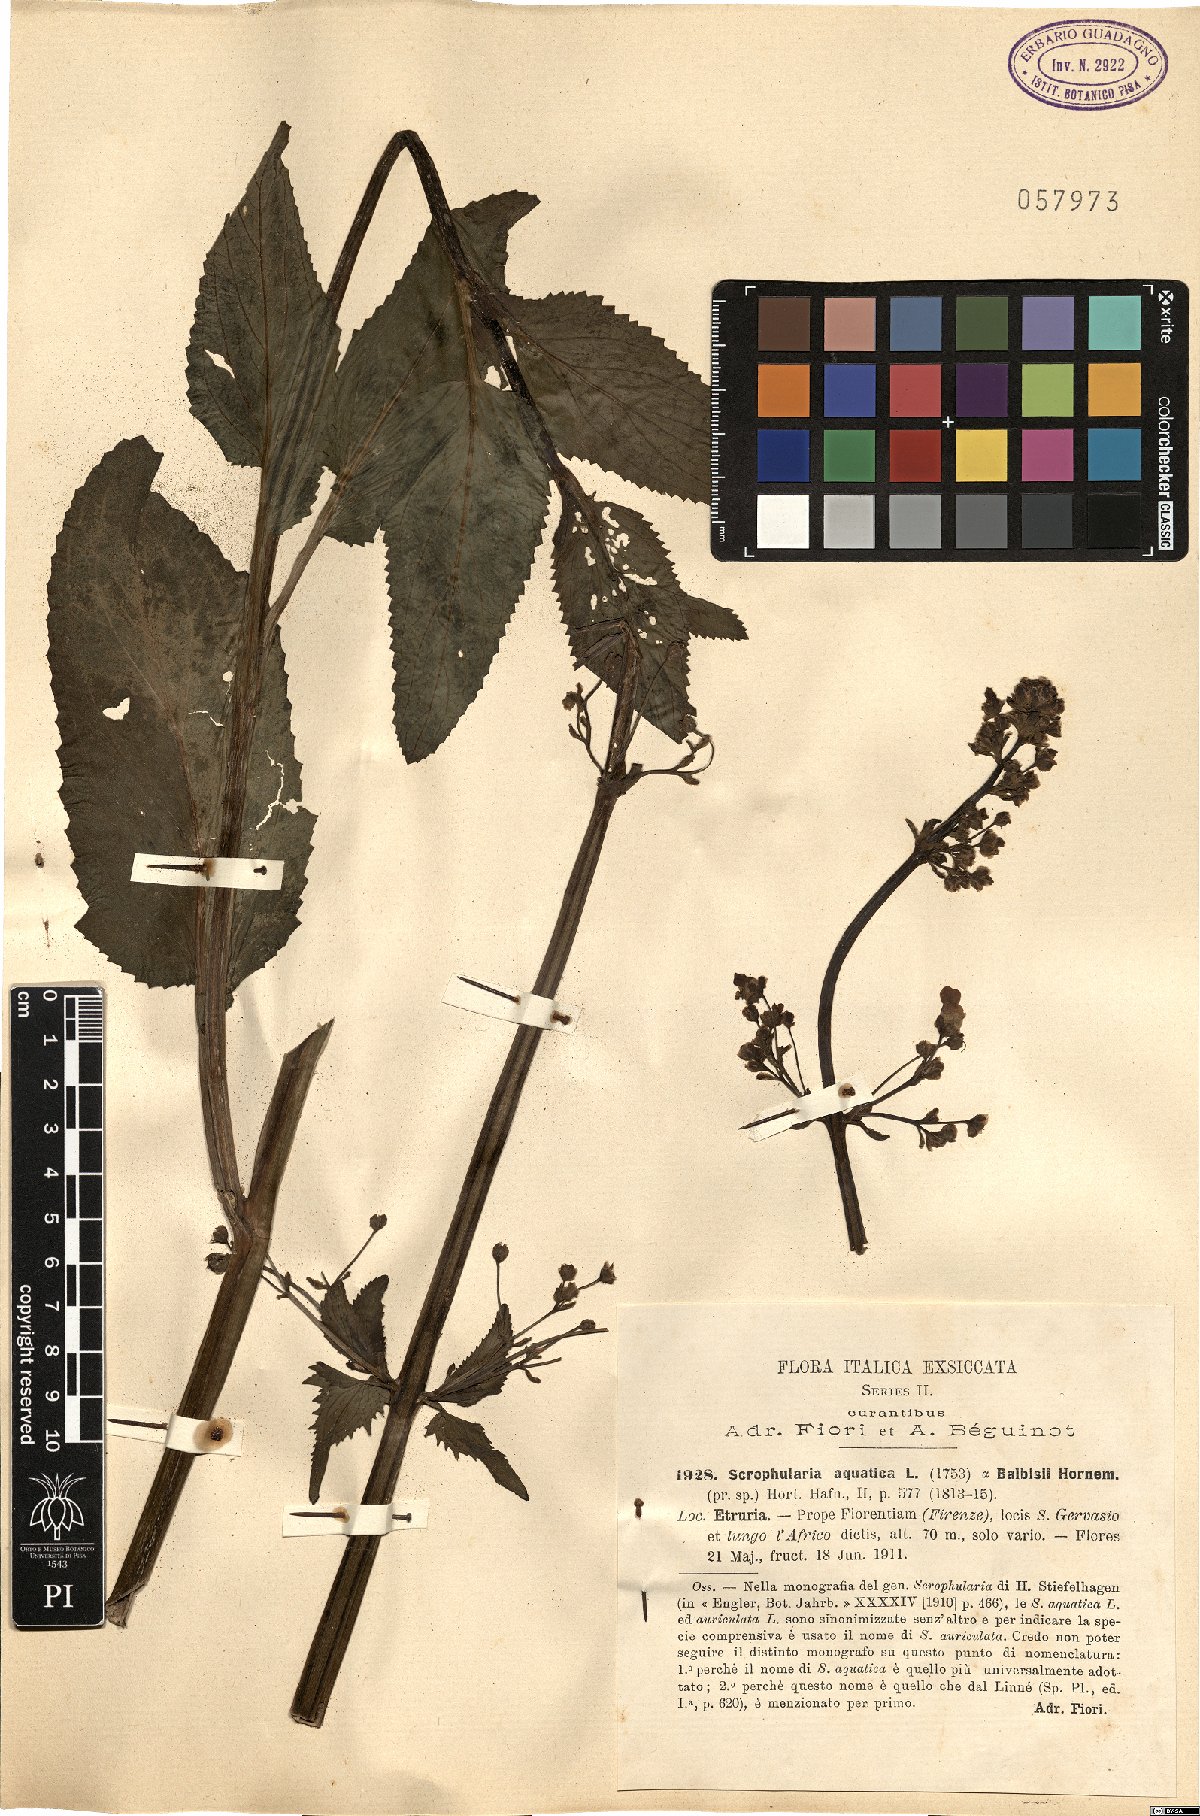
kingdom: Plantae
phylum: Tracheophyta
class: Magnoliopsida
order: Lamiales
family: Scrophulariaceae
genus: Scrophularia
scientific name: Scrophularia
